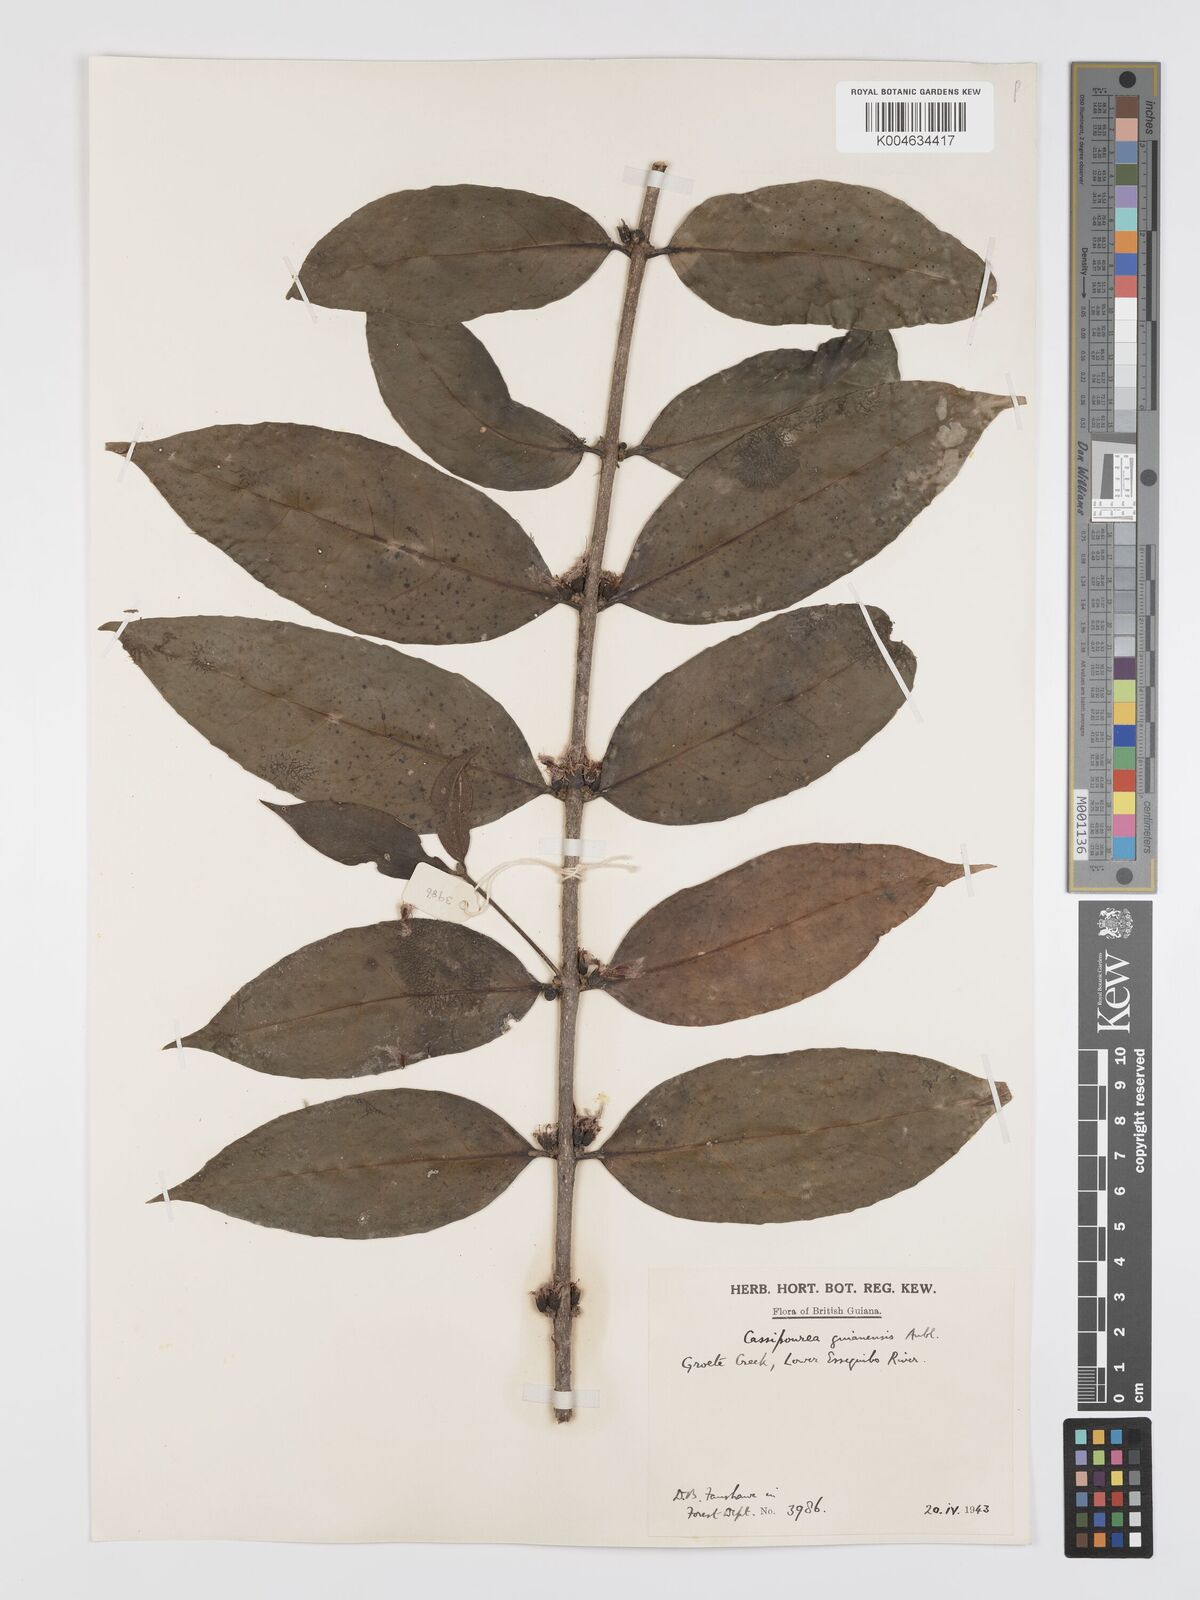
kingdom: Plantae
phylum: Tracheophyta
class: Magnoliopsida
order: Malpighiales
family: Rhizophoraceae
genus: Cassipourea
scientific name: Cassipourea guianensis
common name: Bastard waterwood
